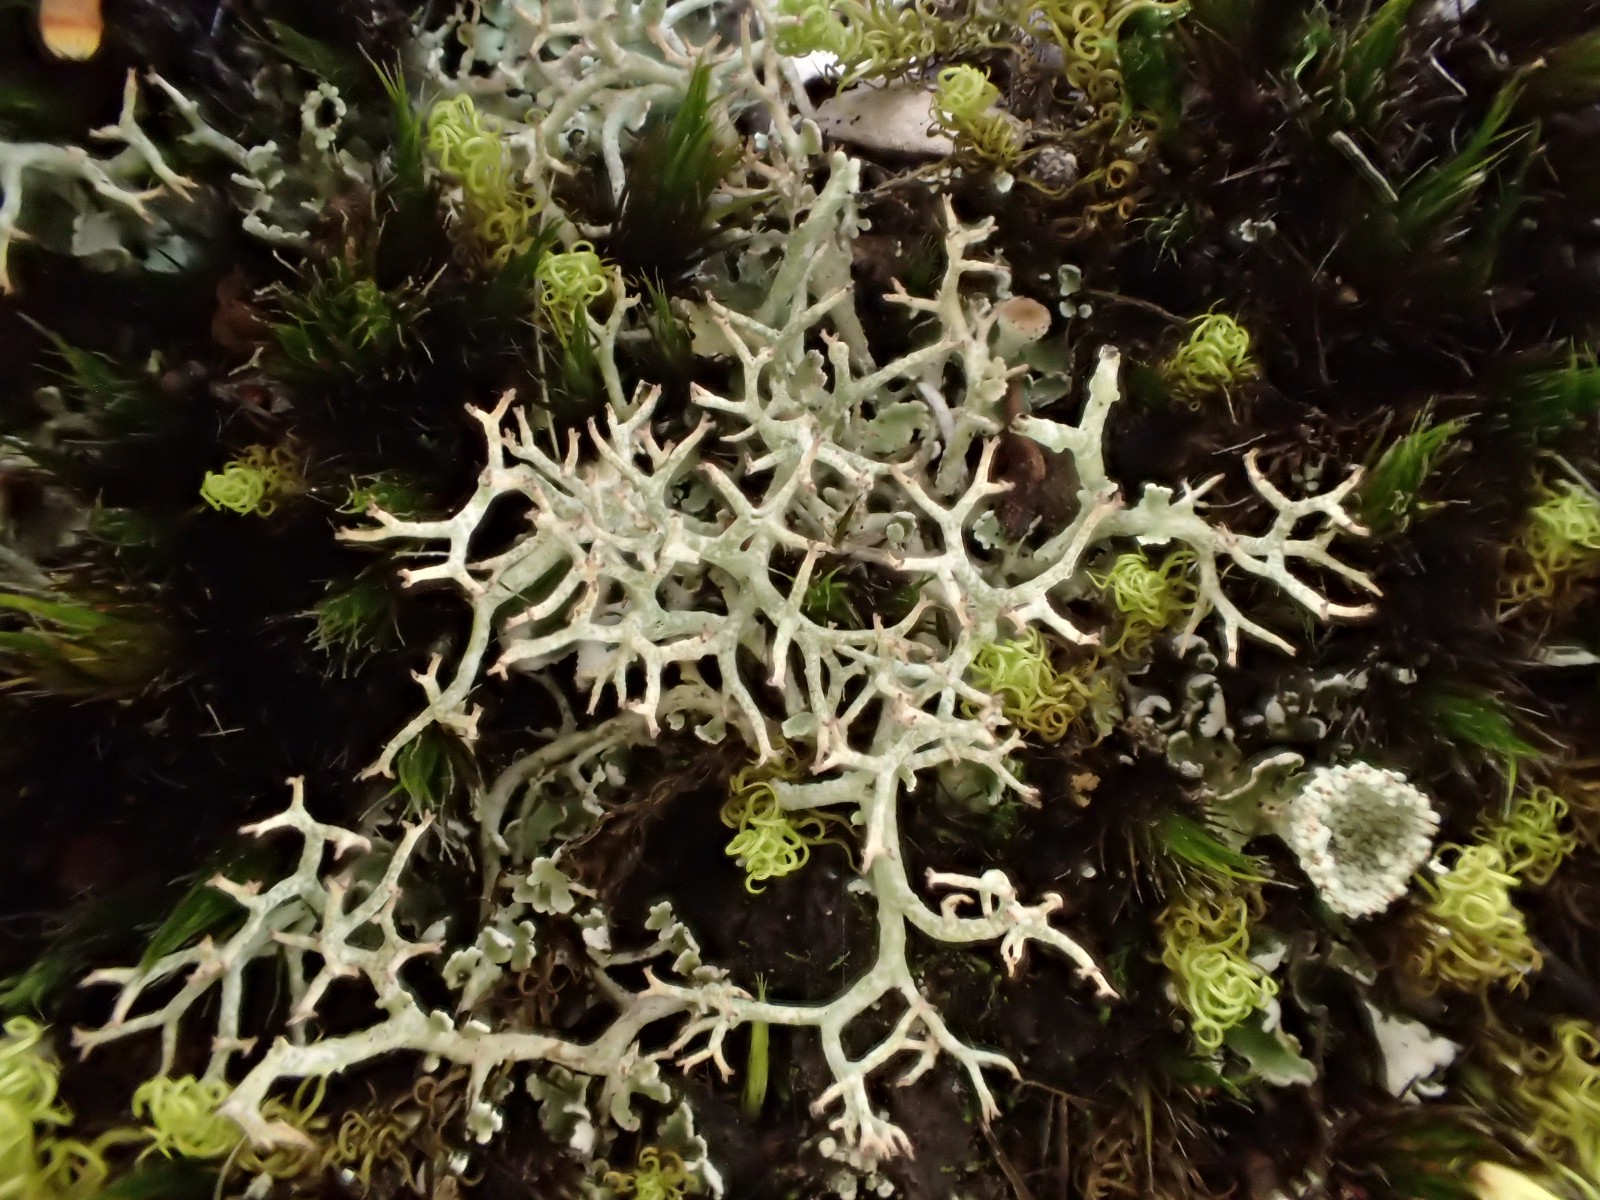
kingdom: Fungi
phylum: Ascomycota
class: Lecanoromycetes
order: Lecanorales
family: Cladoniaceae
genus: Cladonia
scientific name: Cladonia rangiformis
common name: spættet bægerlav
